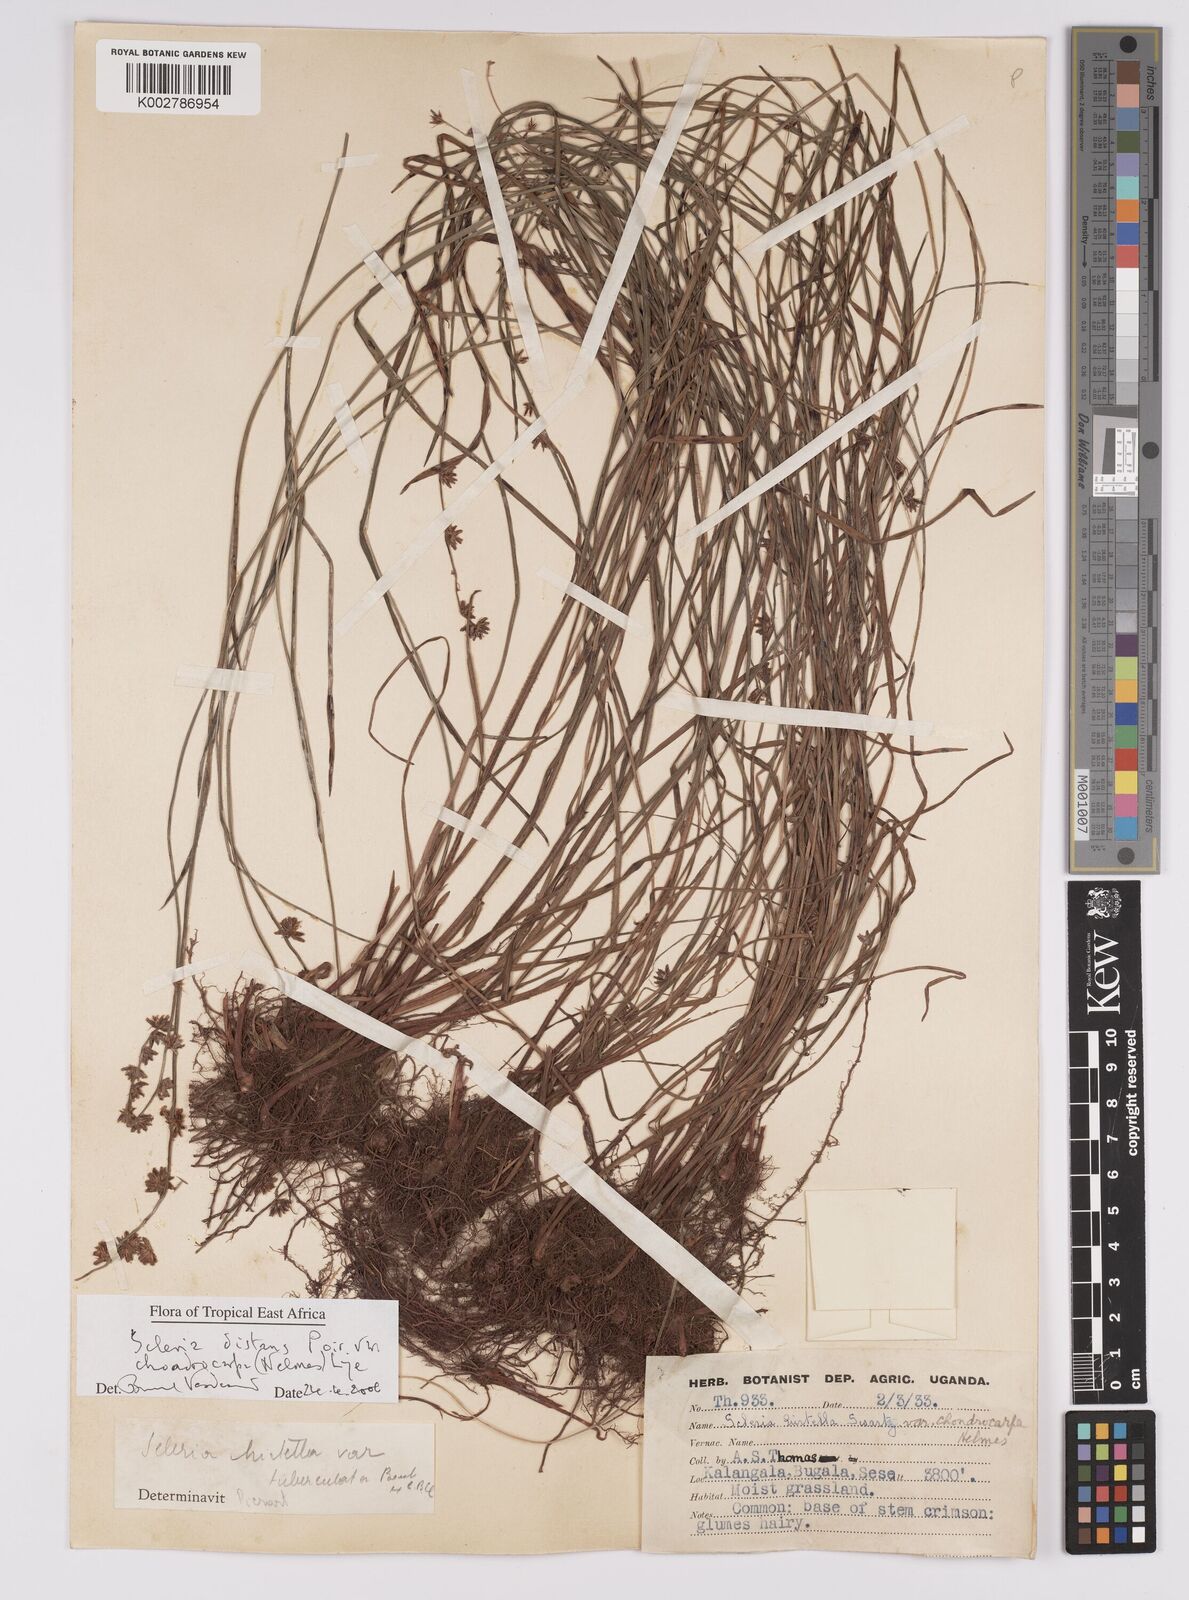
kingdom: Plantae
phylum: Tracheophyta
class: Liliopsida
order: Poales
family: Cyperaceae
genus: Scleria
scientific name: Scleria distans
